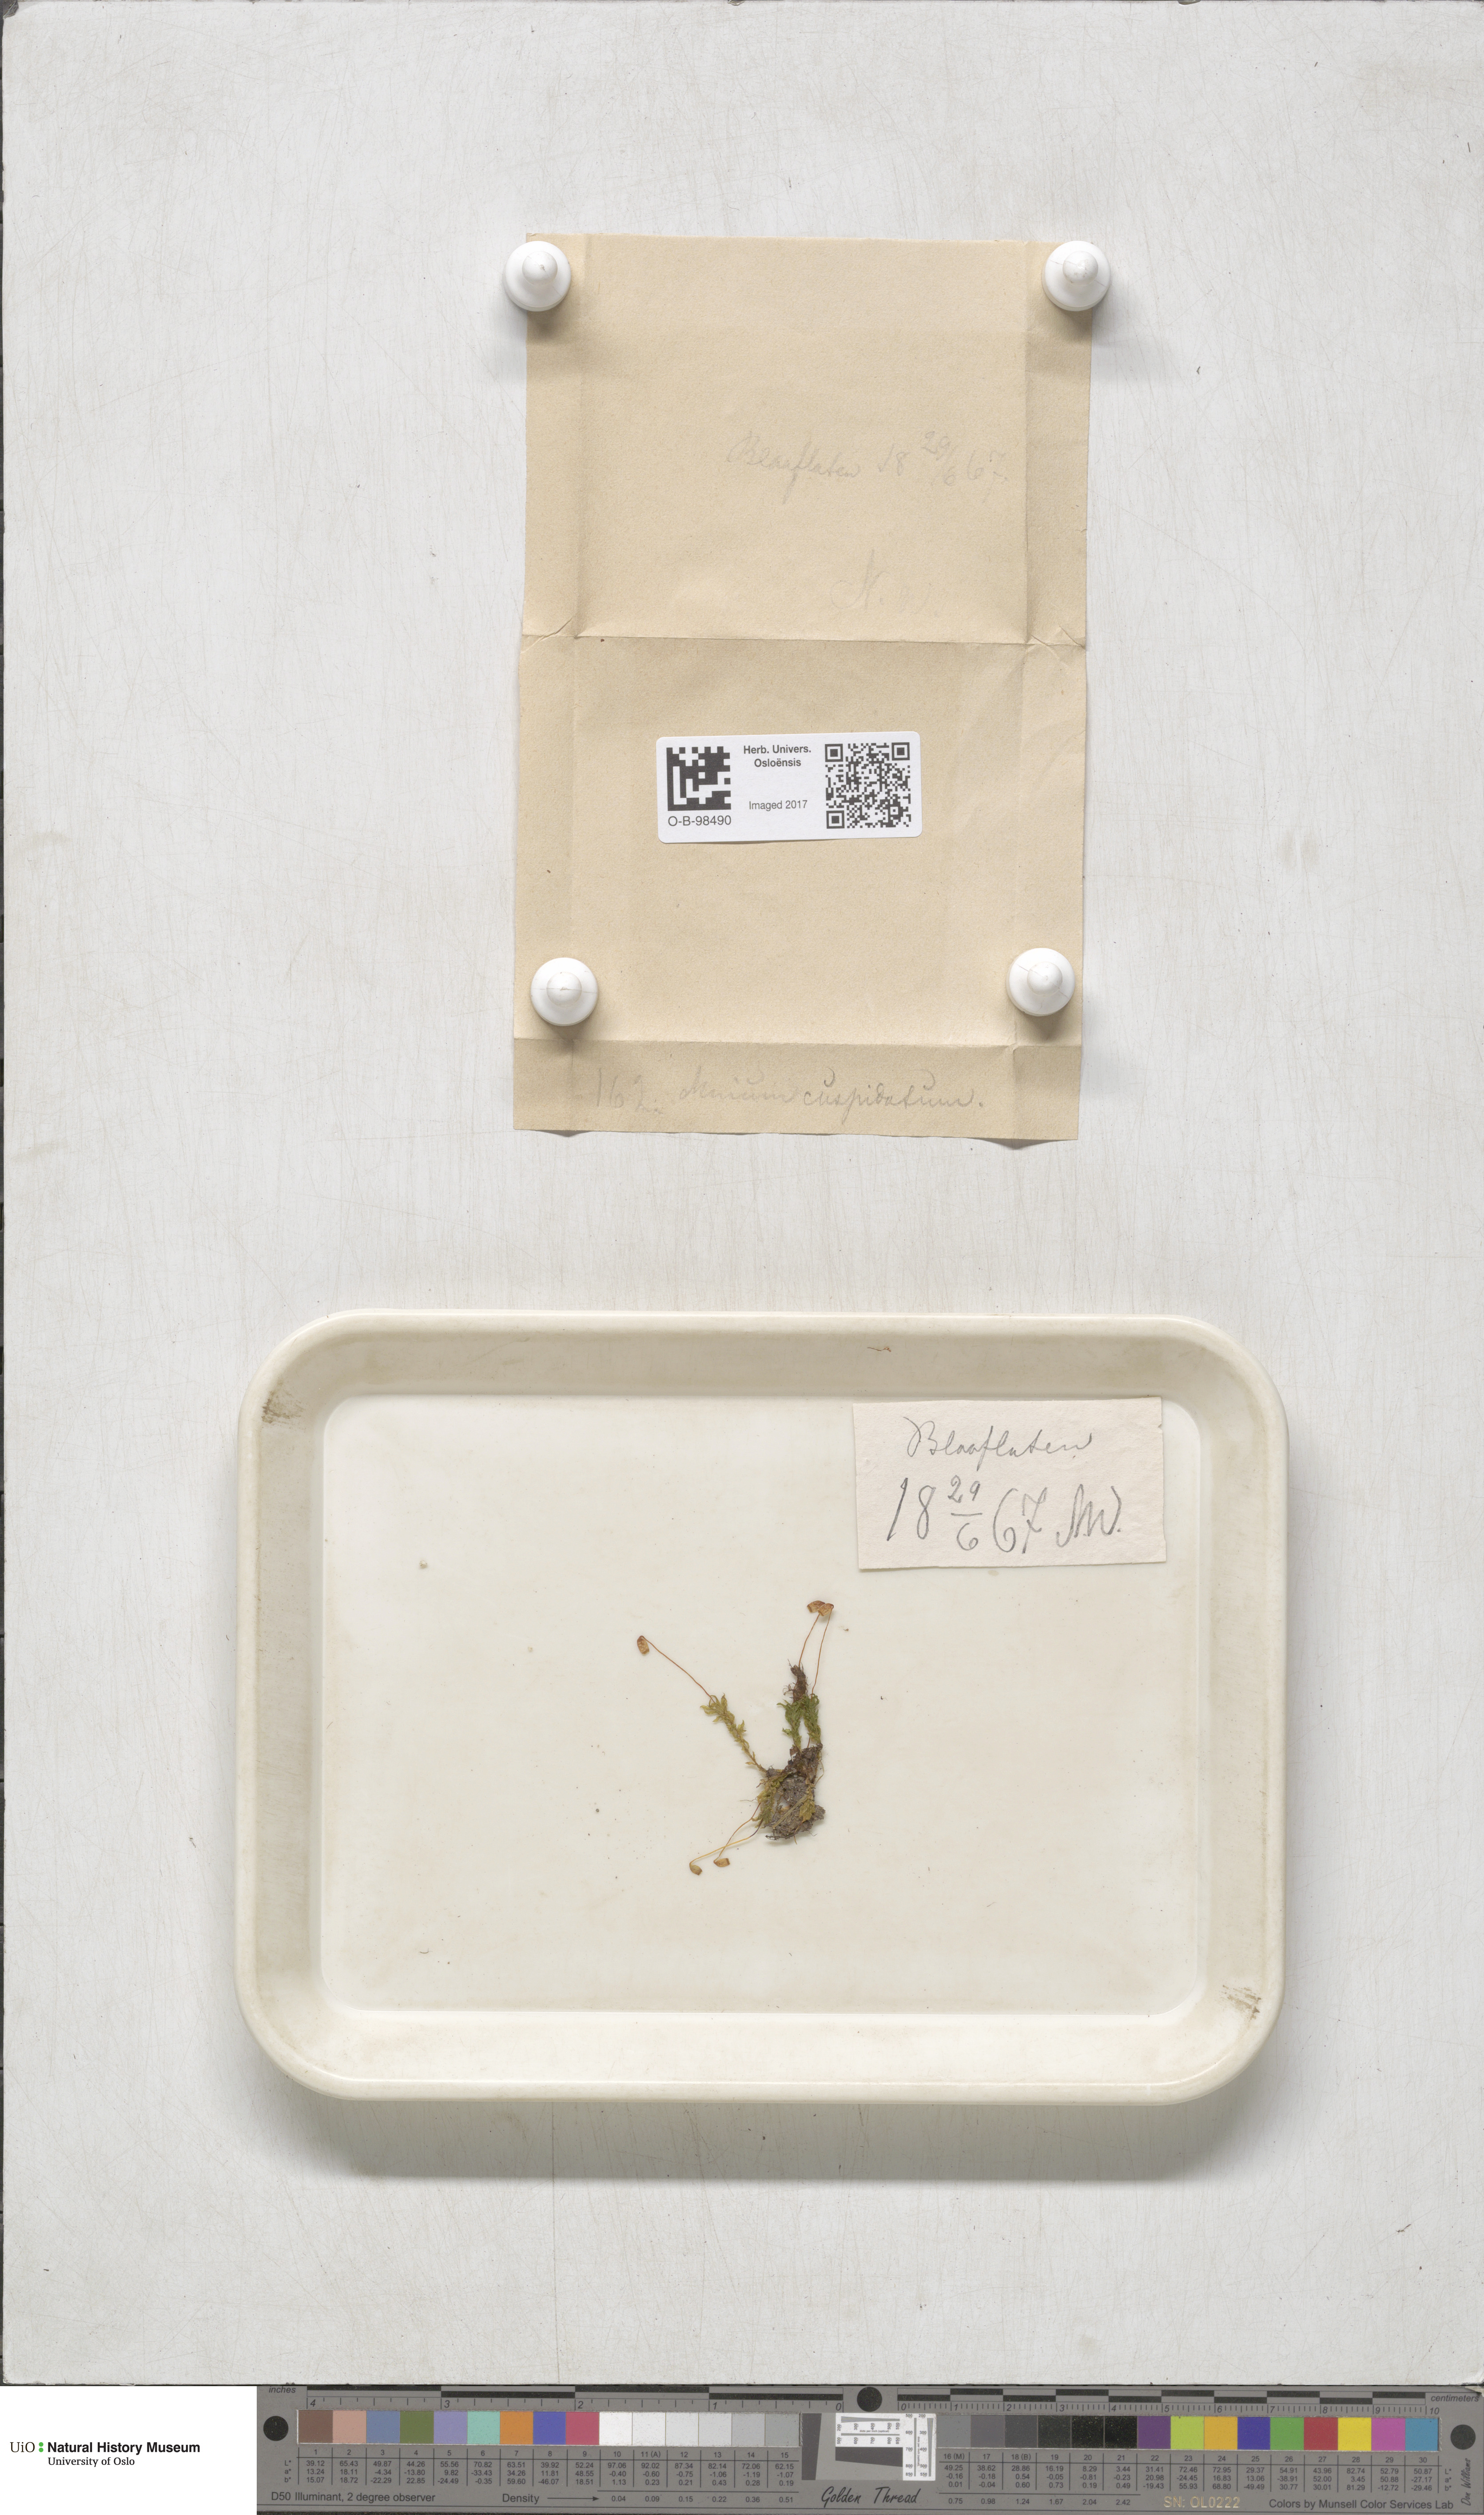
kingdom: Plantae
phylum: Bryophyta
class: Bryopsida
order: Bryales
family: Mniaceae
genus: Plagiomnium
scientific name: Plagiomnium cuspidatum
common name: Woodsy leafy moss
